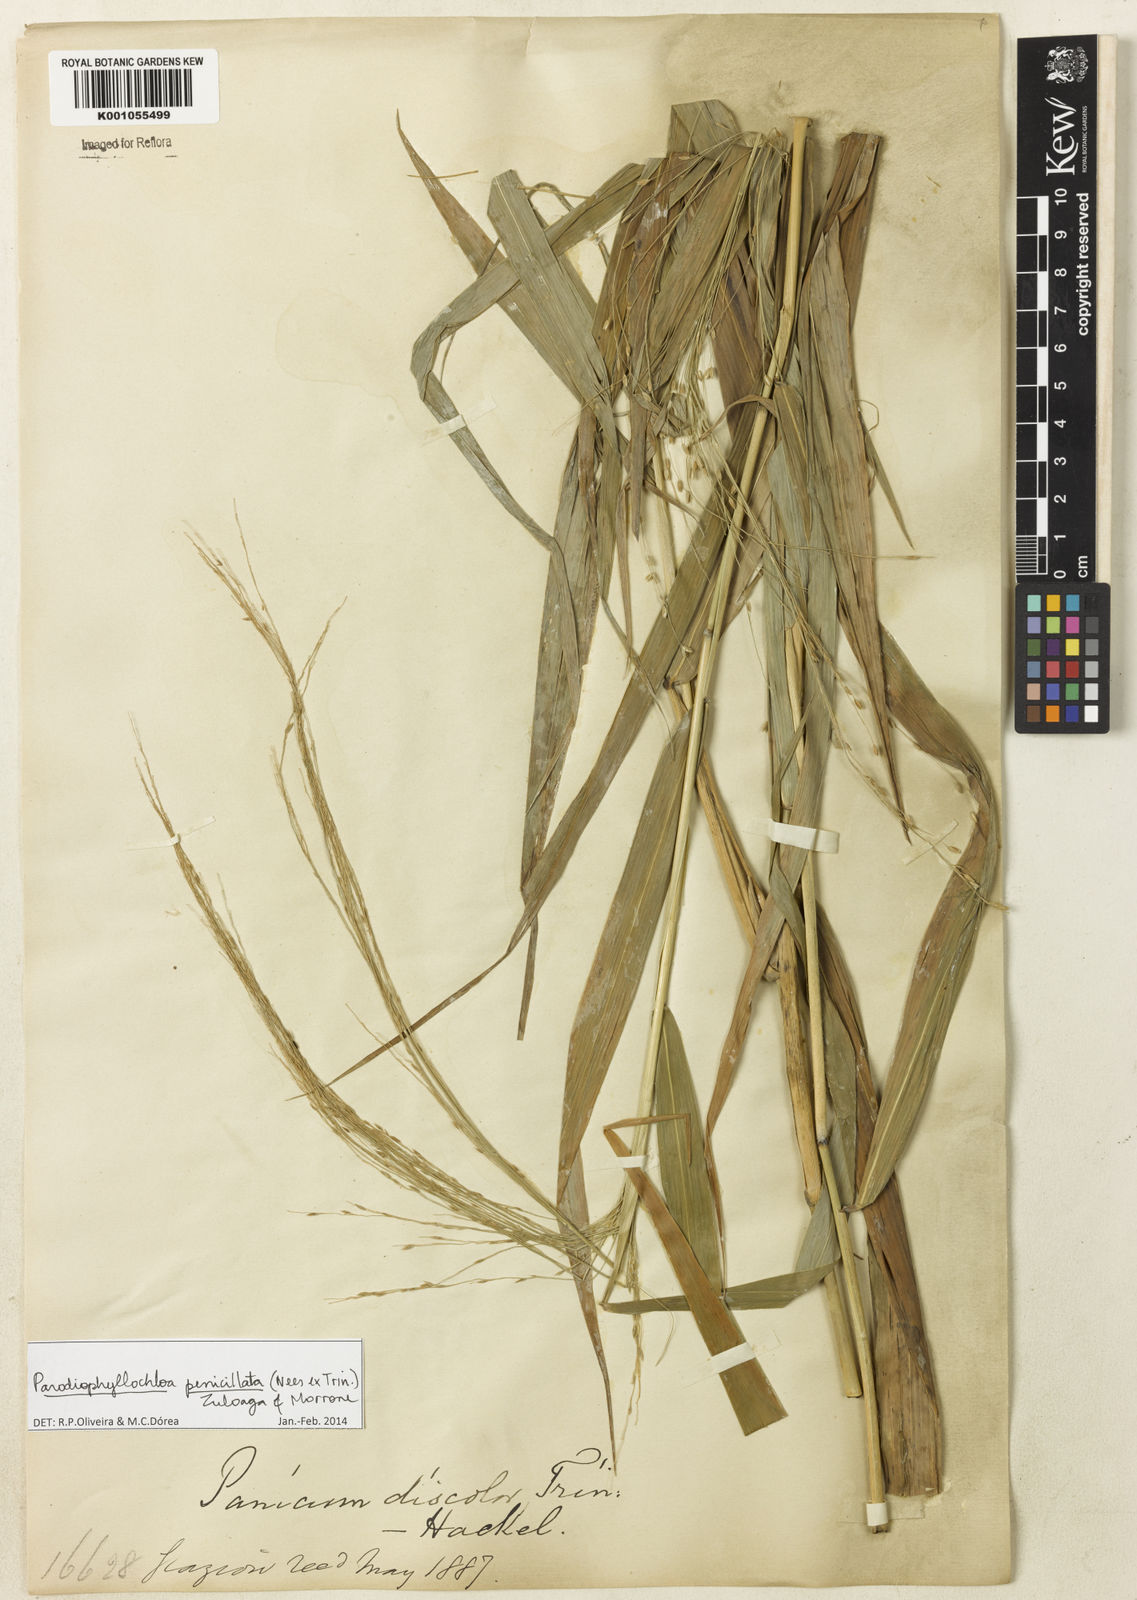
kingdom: Plantae
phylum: Tracheophyta
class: Liliopsida
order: Poales
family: Poaceae
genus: Panicum
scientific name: Panicum
